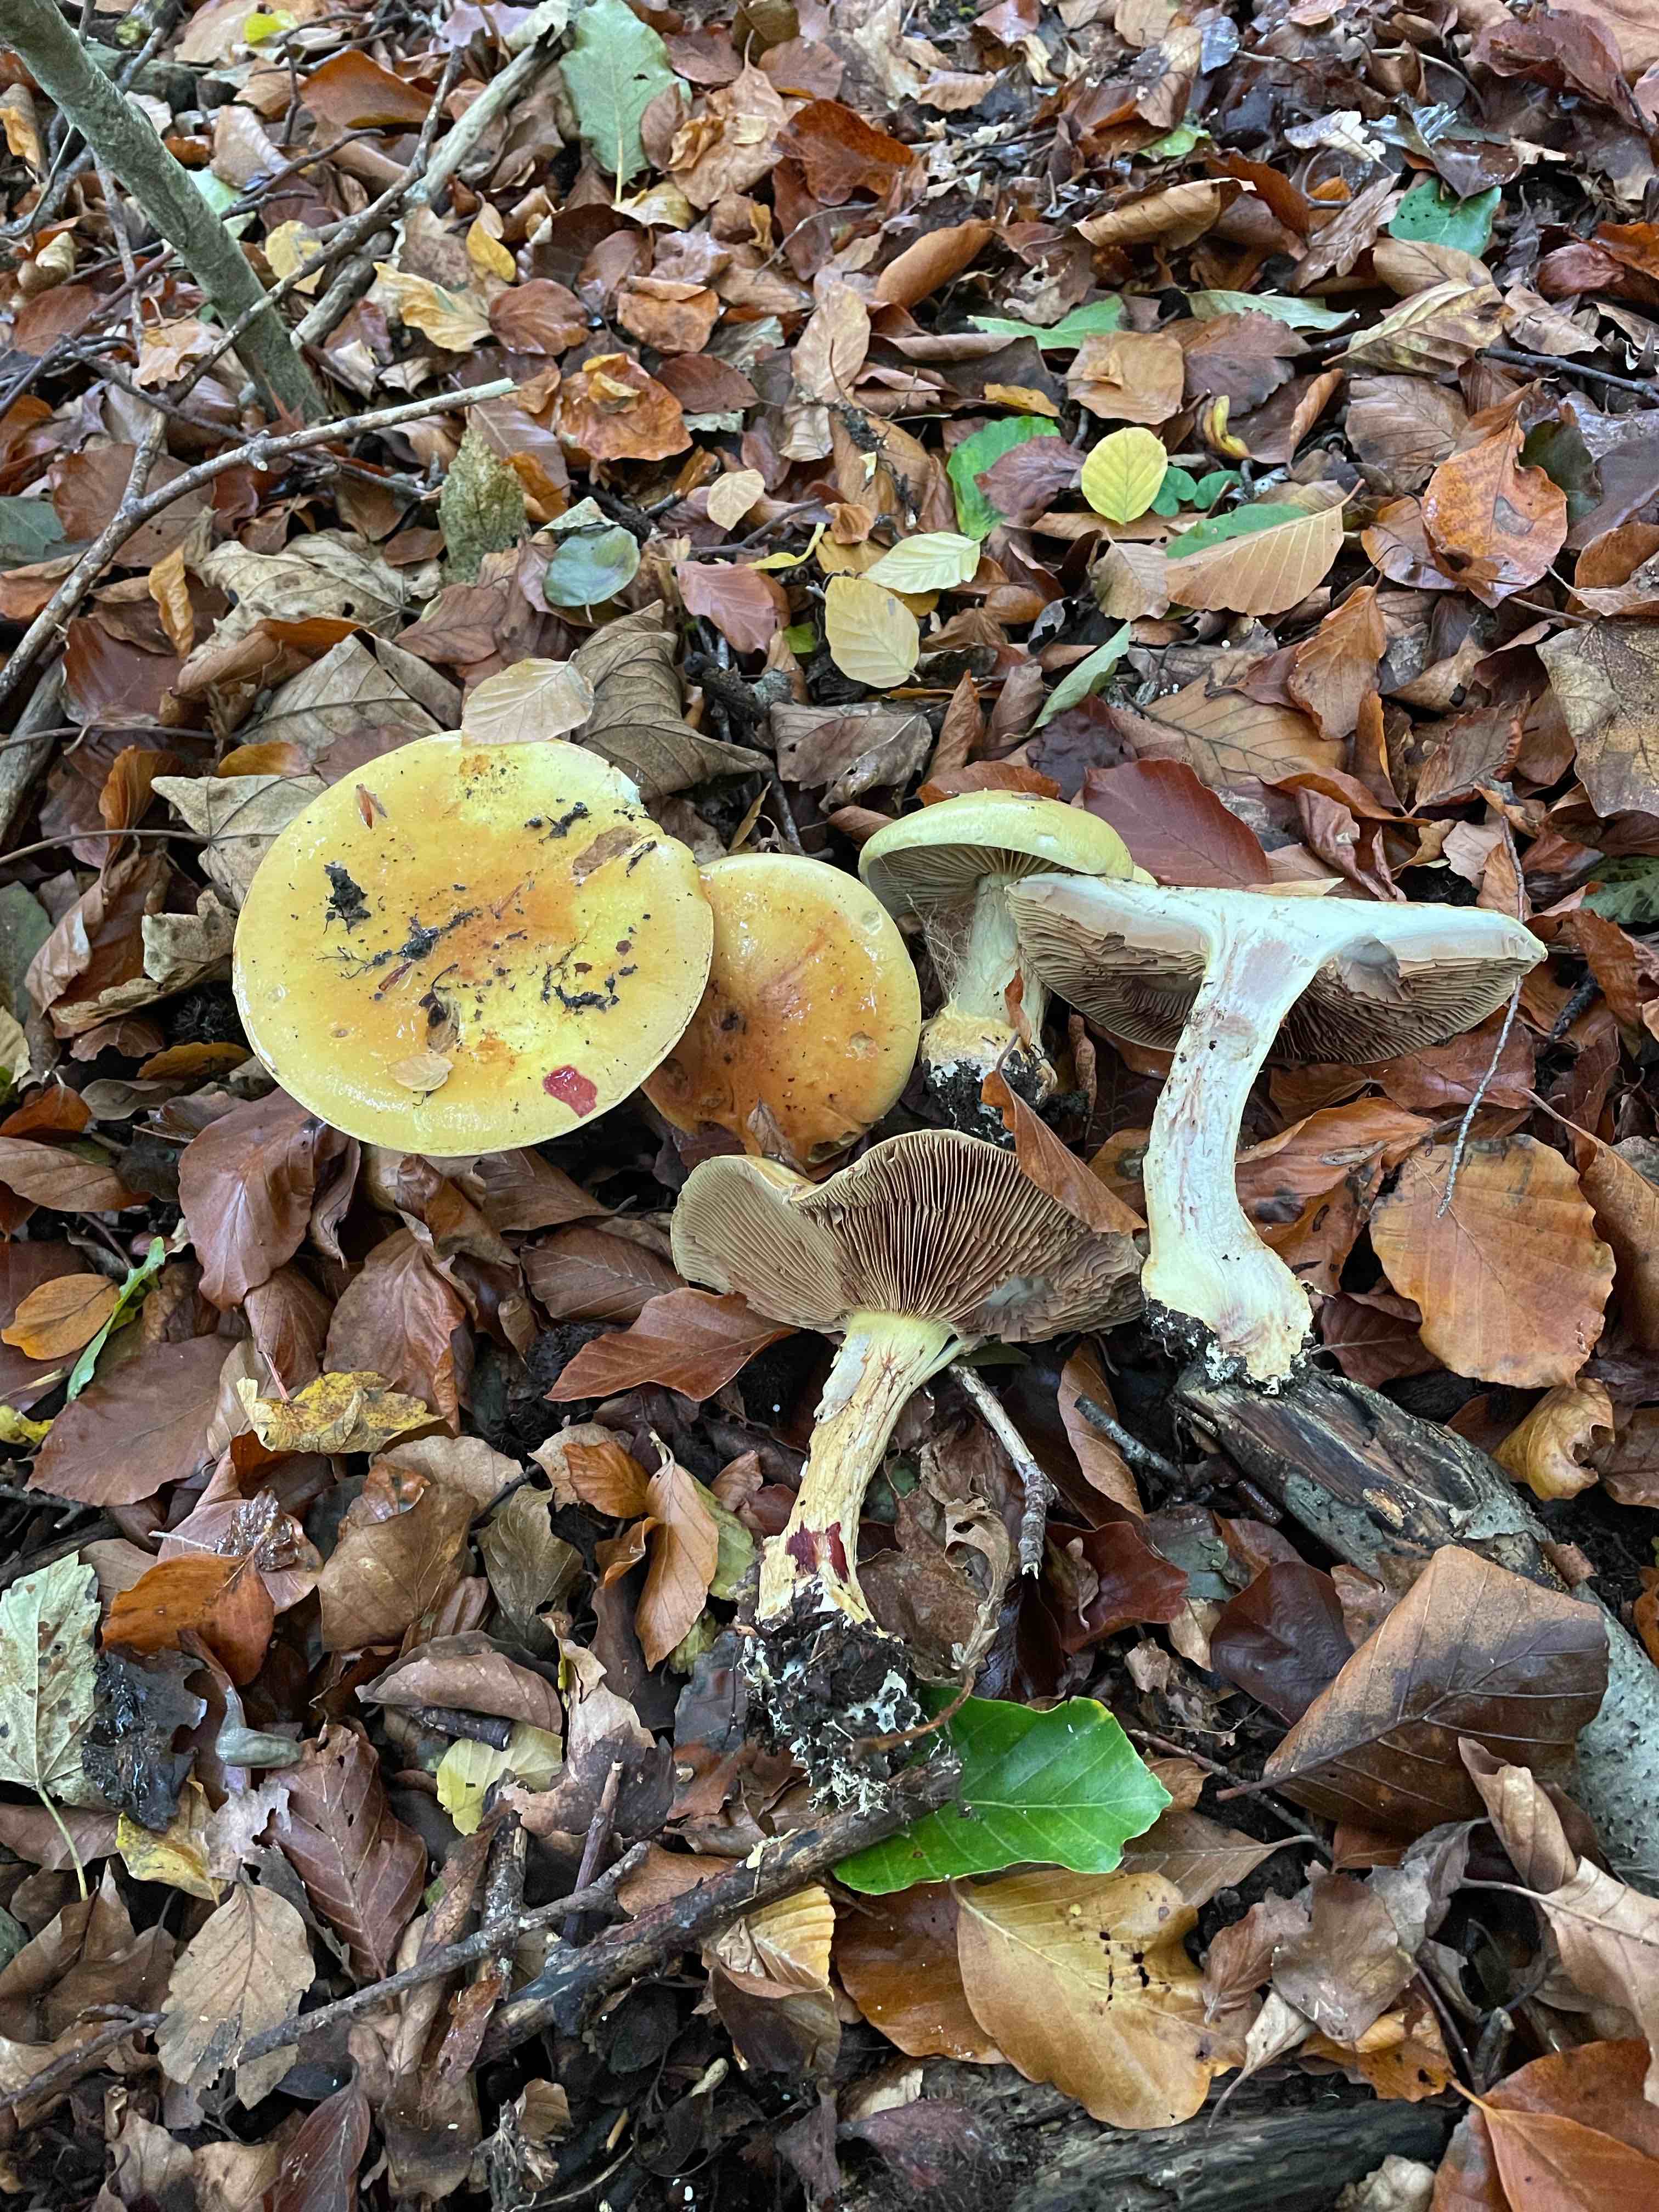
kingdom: Fungi
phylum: Basidiomycota
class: Agaricomycetes
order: Agaricales
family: Cortinariaceae
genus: Calonarius
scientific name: Calonarius elegantissimus
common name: orangegylden slørhat
